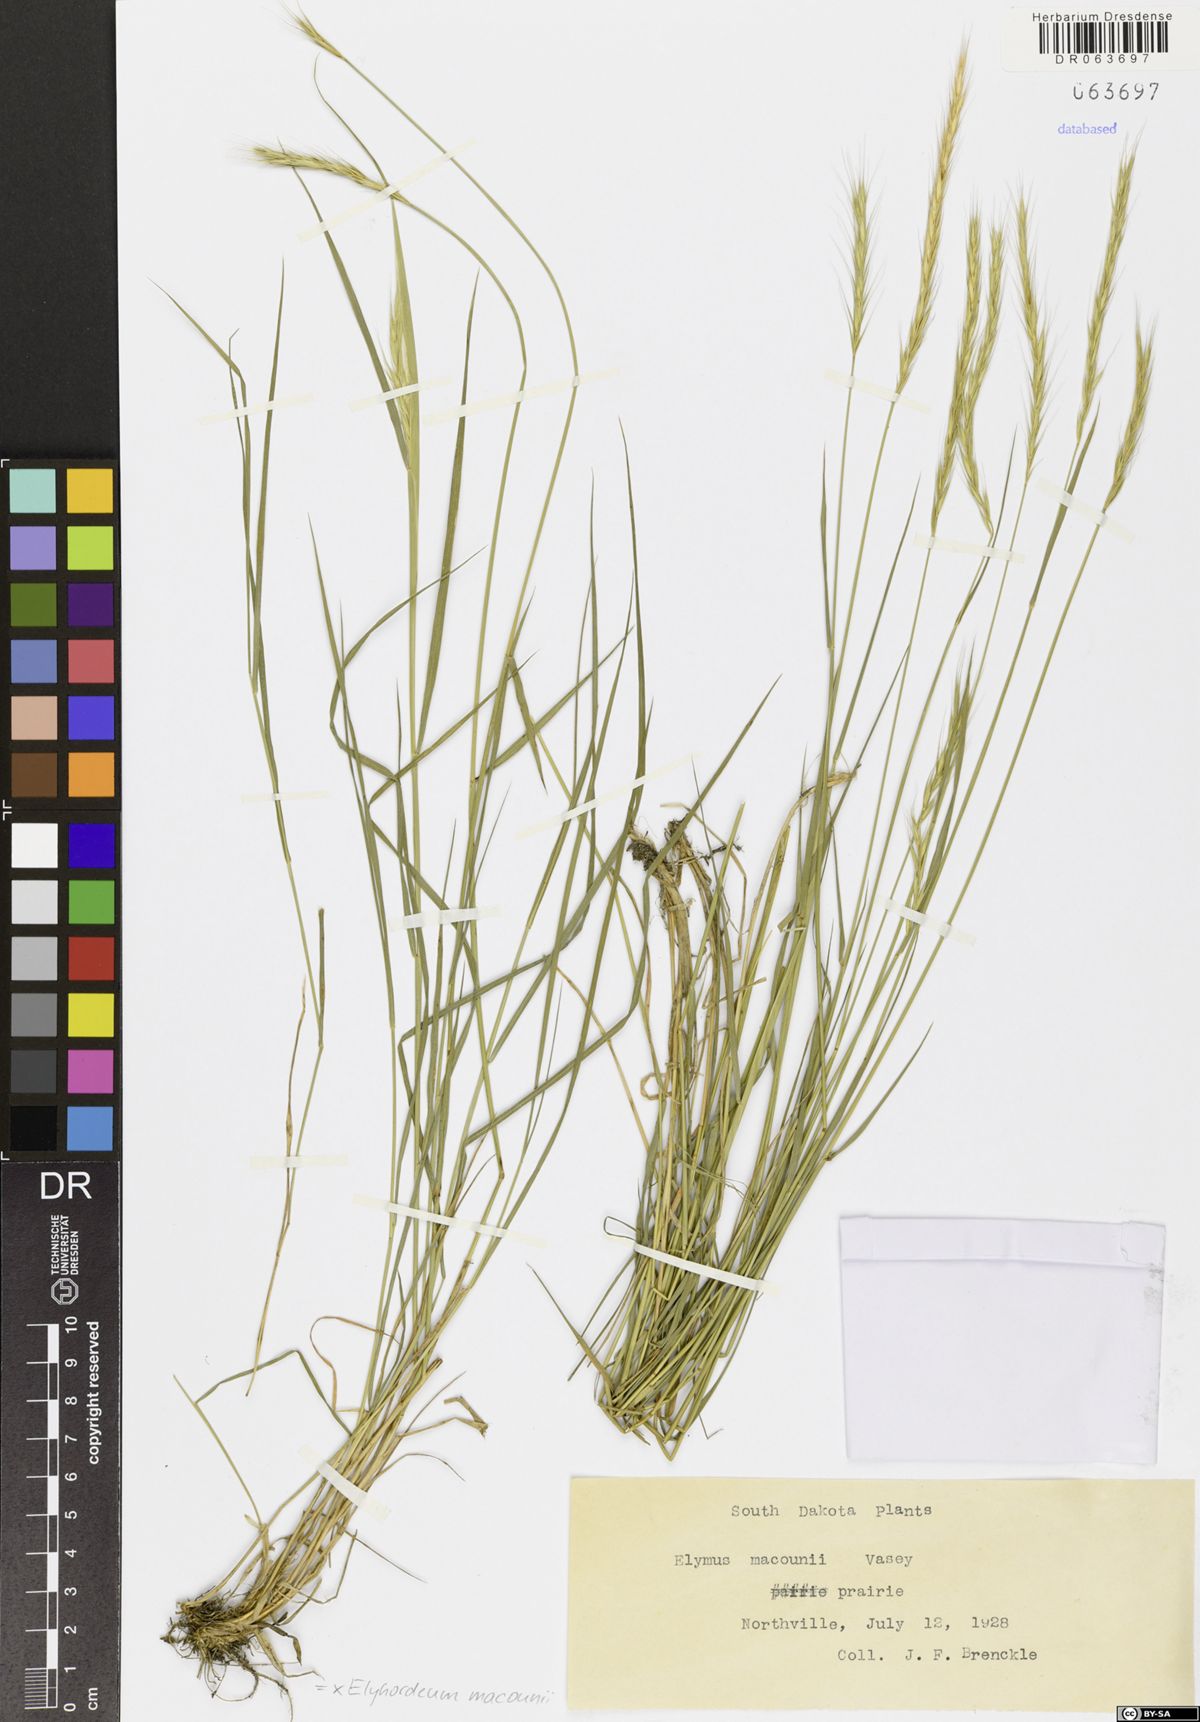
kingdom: Plantae
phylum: Tracheophyta
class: Liliopsida
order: Poales
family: Poaceae
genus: Elyhordeum
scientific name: Elyhordeum macounii
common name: Macoun's barley
